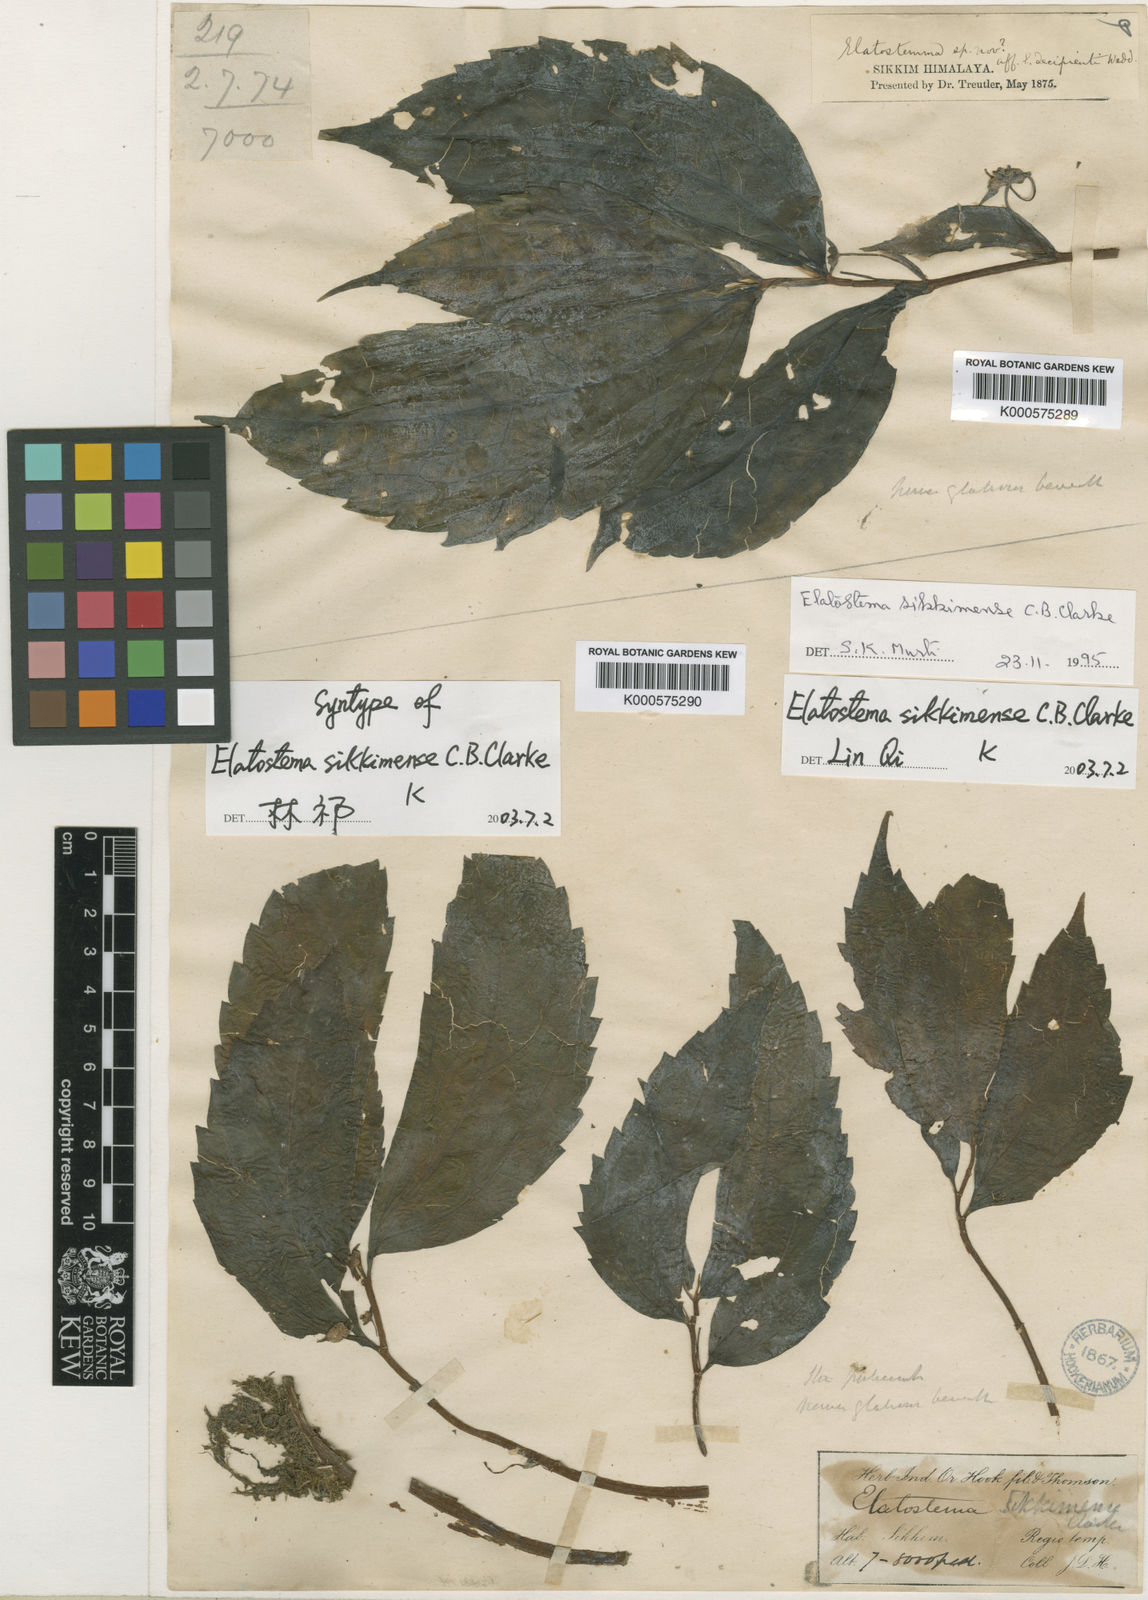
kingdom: Plantae
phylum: Tracheophyta
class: Magnoliopsida
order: Rosales
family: Urticaceae
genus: Elatostema
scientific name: Elatostema sikkimense
